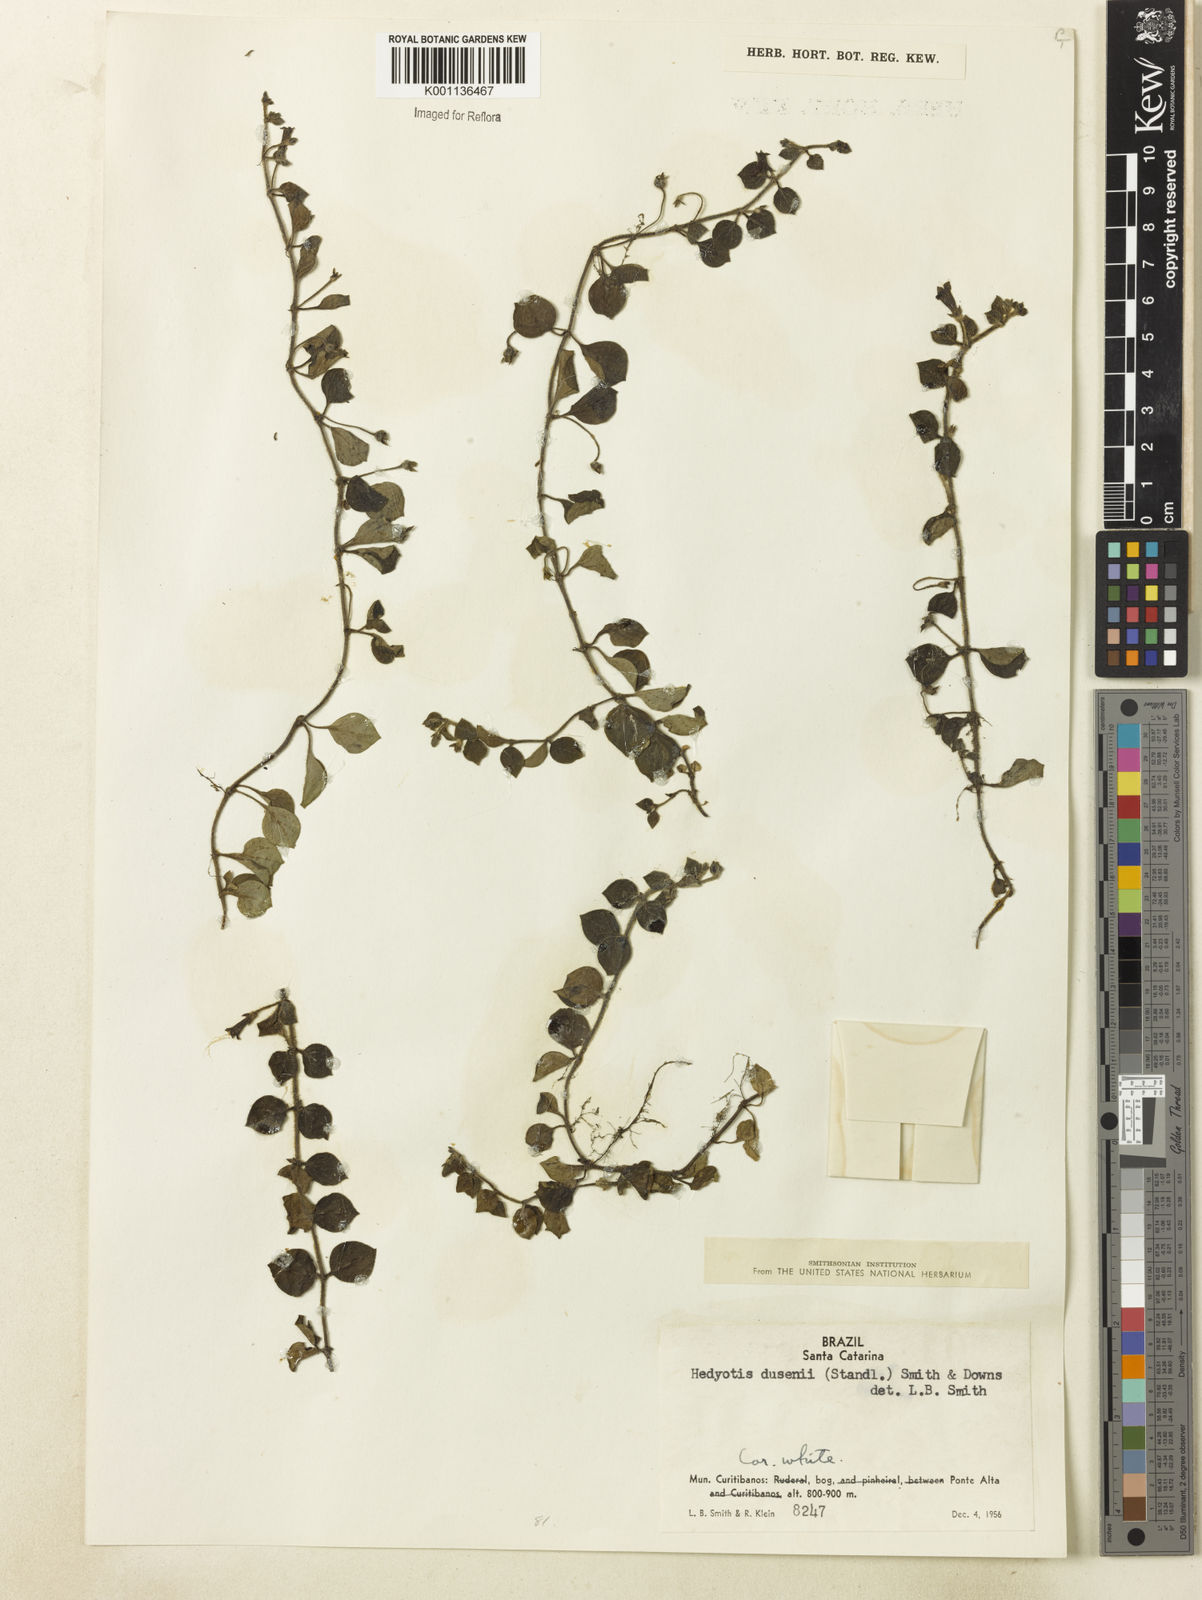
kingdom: Plantae
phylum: Tracheophyta
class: Magnoliopsida
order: Gentianales
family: Rubiaceae
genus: Oldenlandia
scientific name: Oldenlandia dusenii
